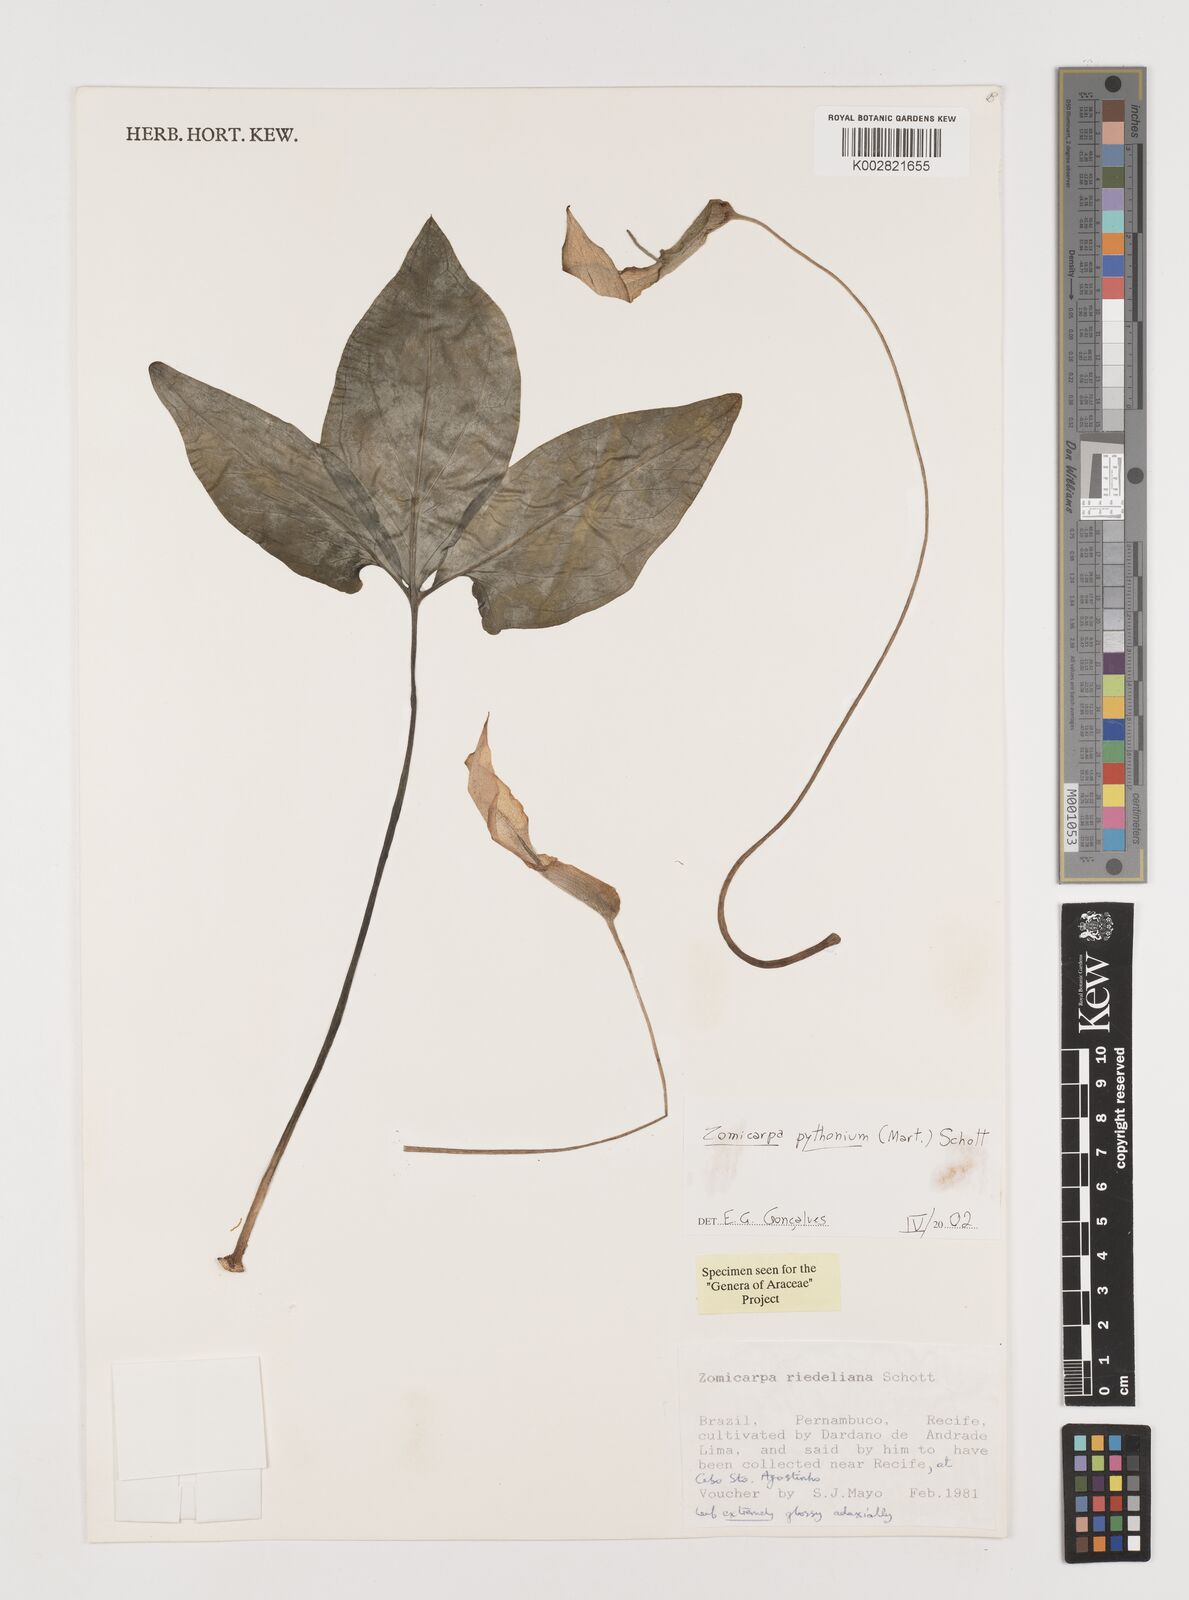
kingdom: Plantae
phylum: Tracheophyta
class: Liliopsida
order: Alismatales
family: Araceae
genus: Zomicarpa
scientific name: Zomicarpa pythonium
